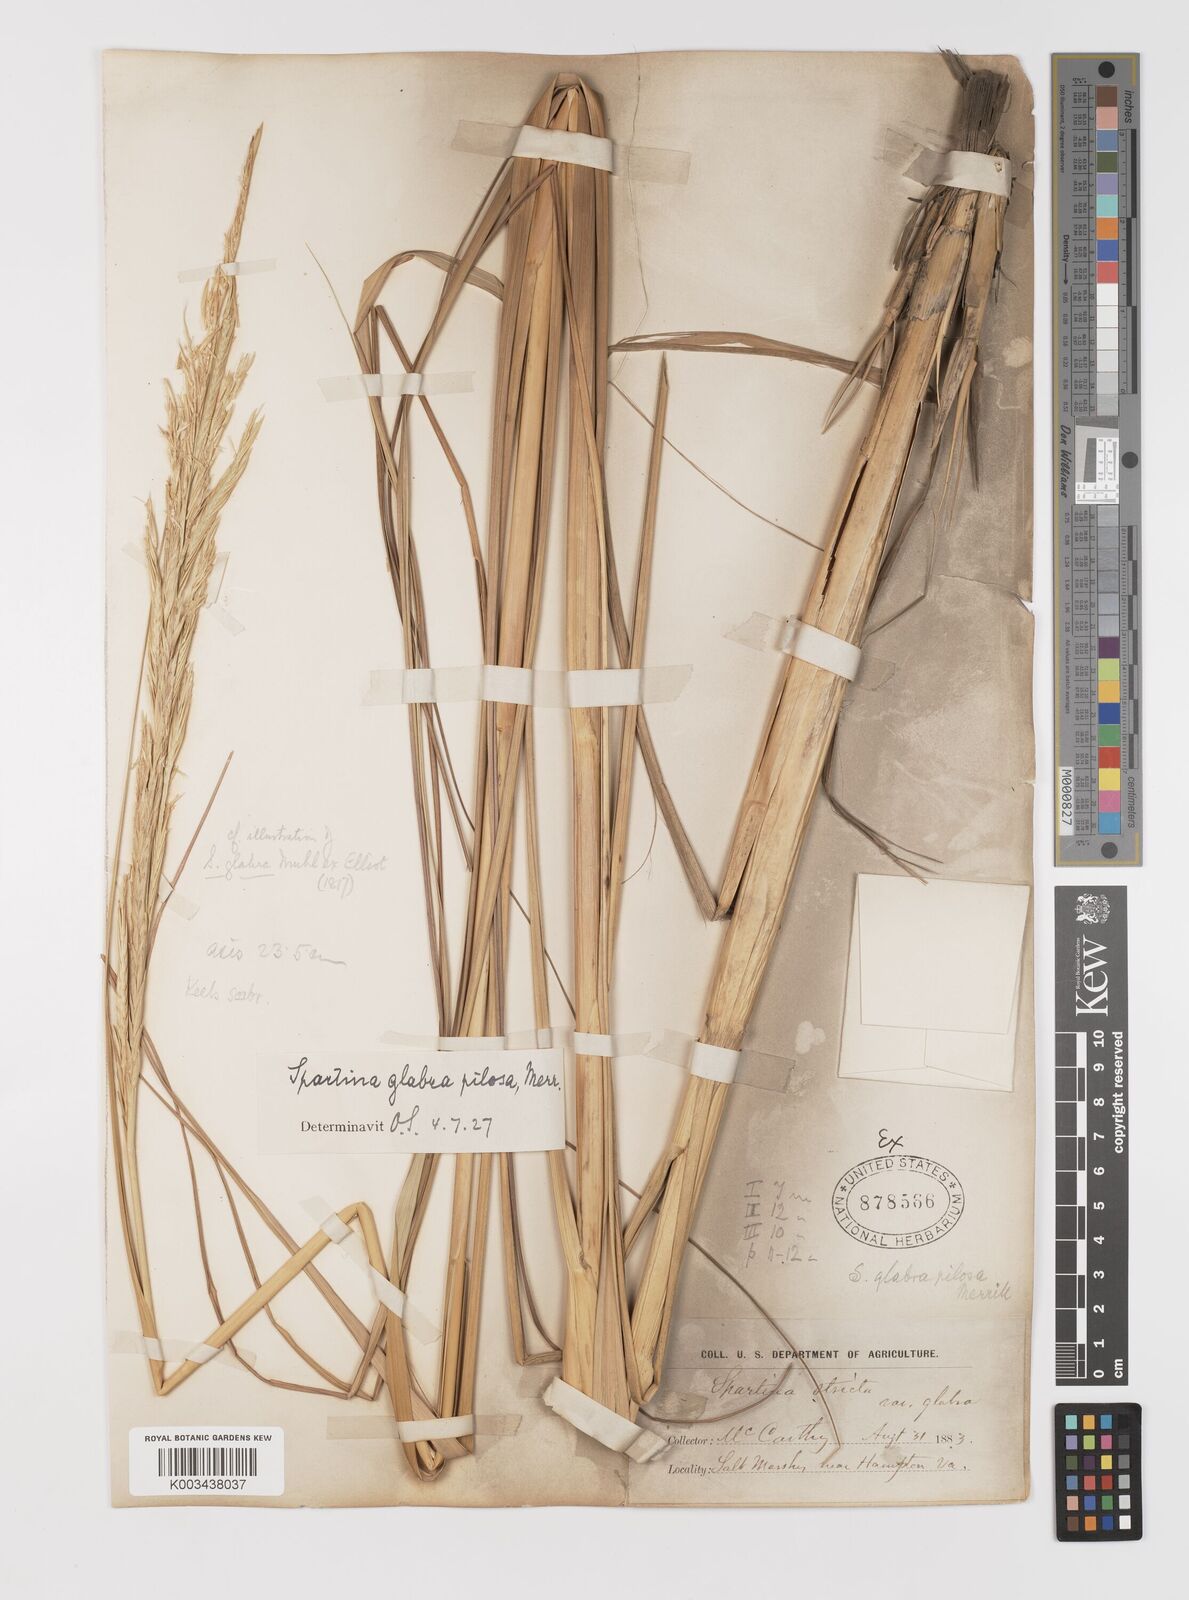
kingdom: Plantae
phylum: Tracheophyta
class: Liliopsida
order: Poales
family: Poaceae
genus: Sporobolus
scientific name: Sporobolus alterniflorus
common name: Atlantic cordgrass
